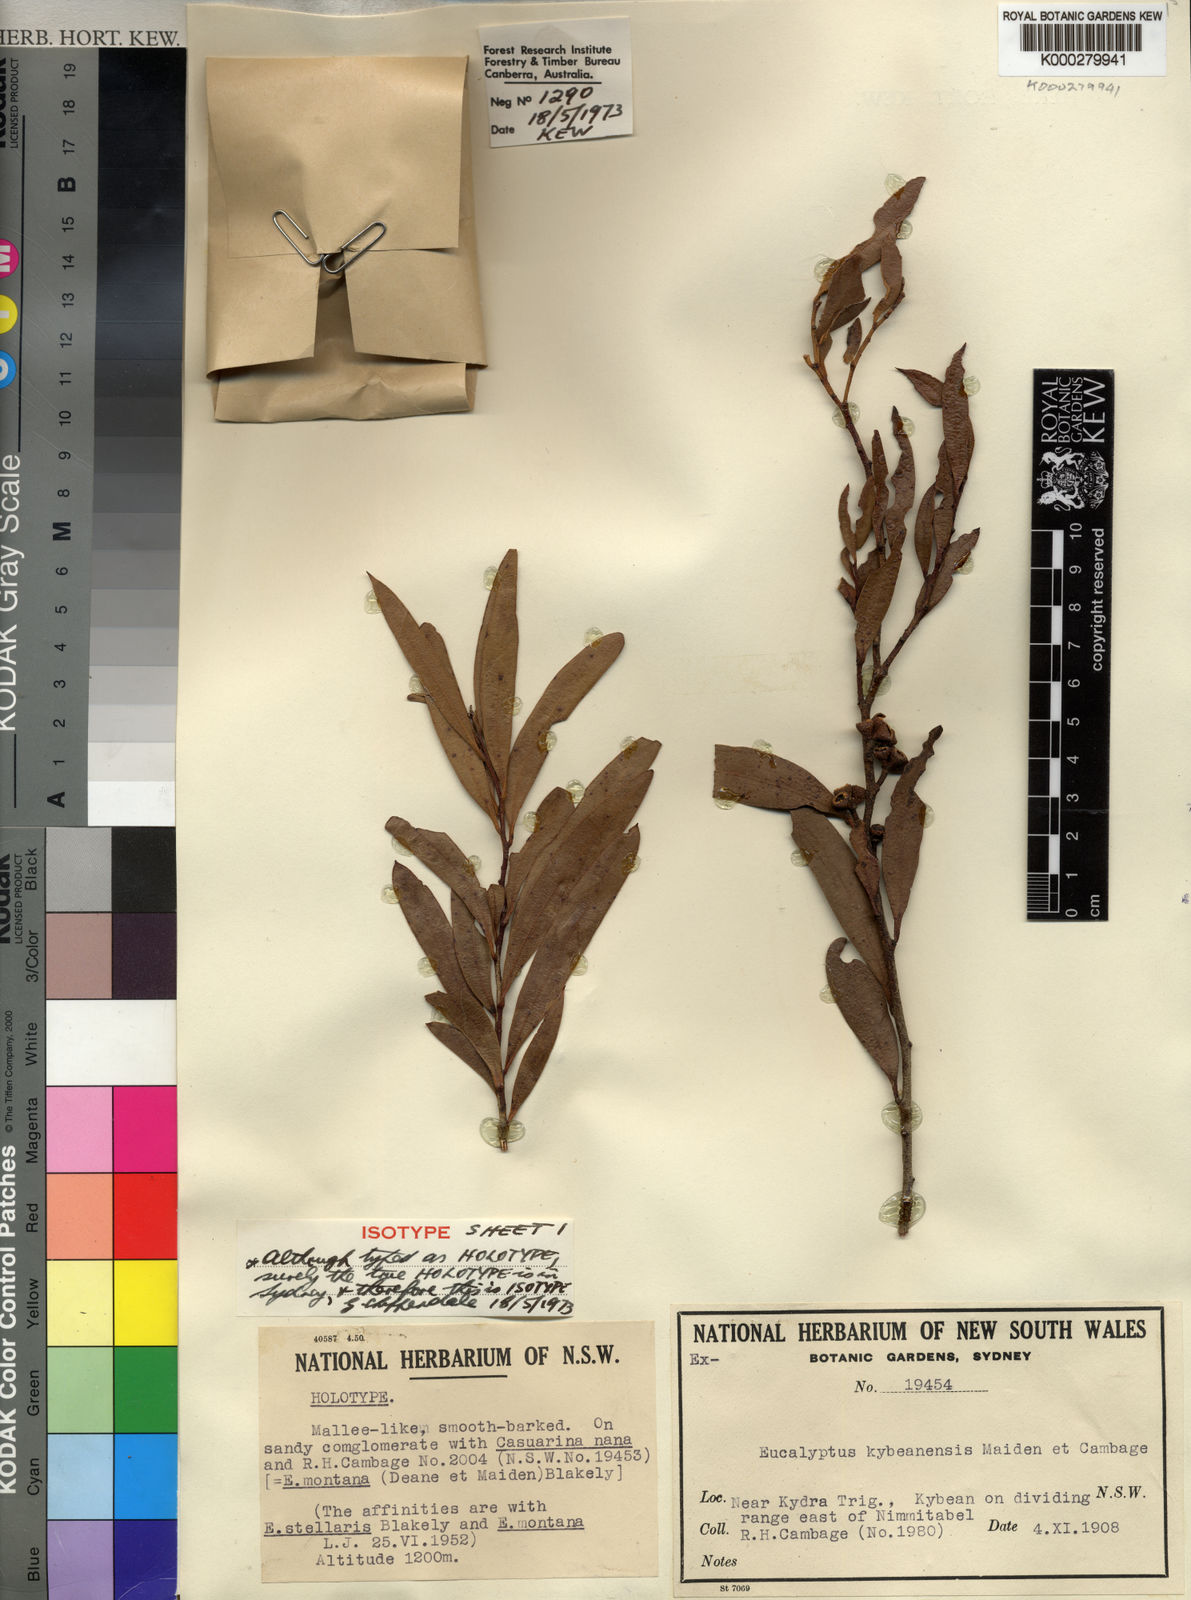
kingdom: Plantae
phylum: Tracheophyta
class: Magnoliopsida
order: Myrtales
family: Myrtaceae
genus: Eucalyptus
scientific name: Eucalyptus kybeanensis
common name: Kybean mallee-ash
